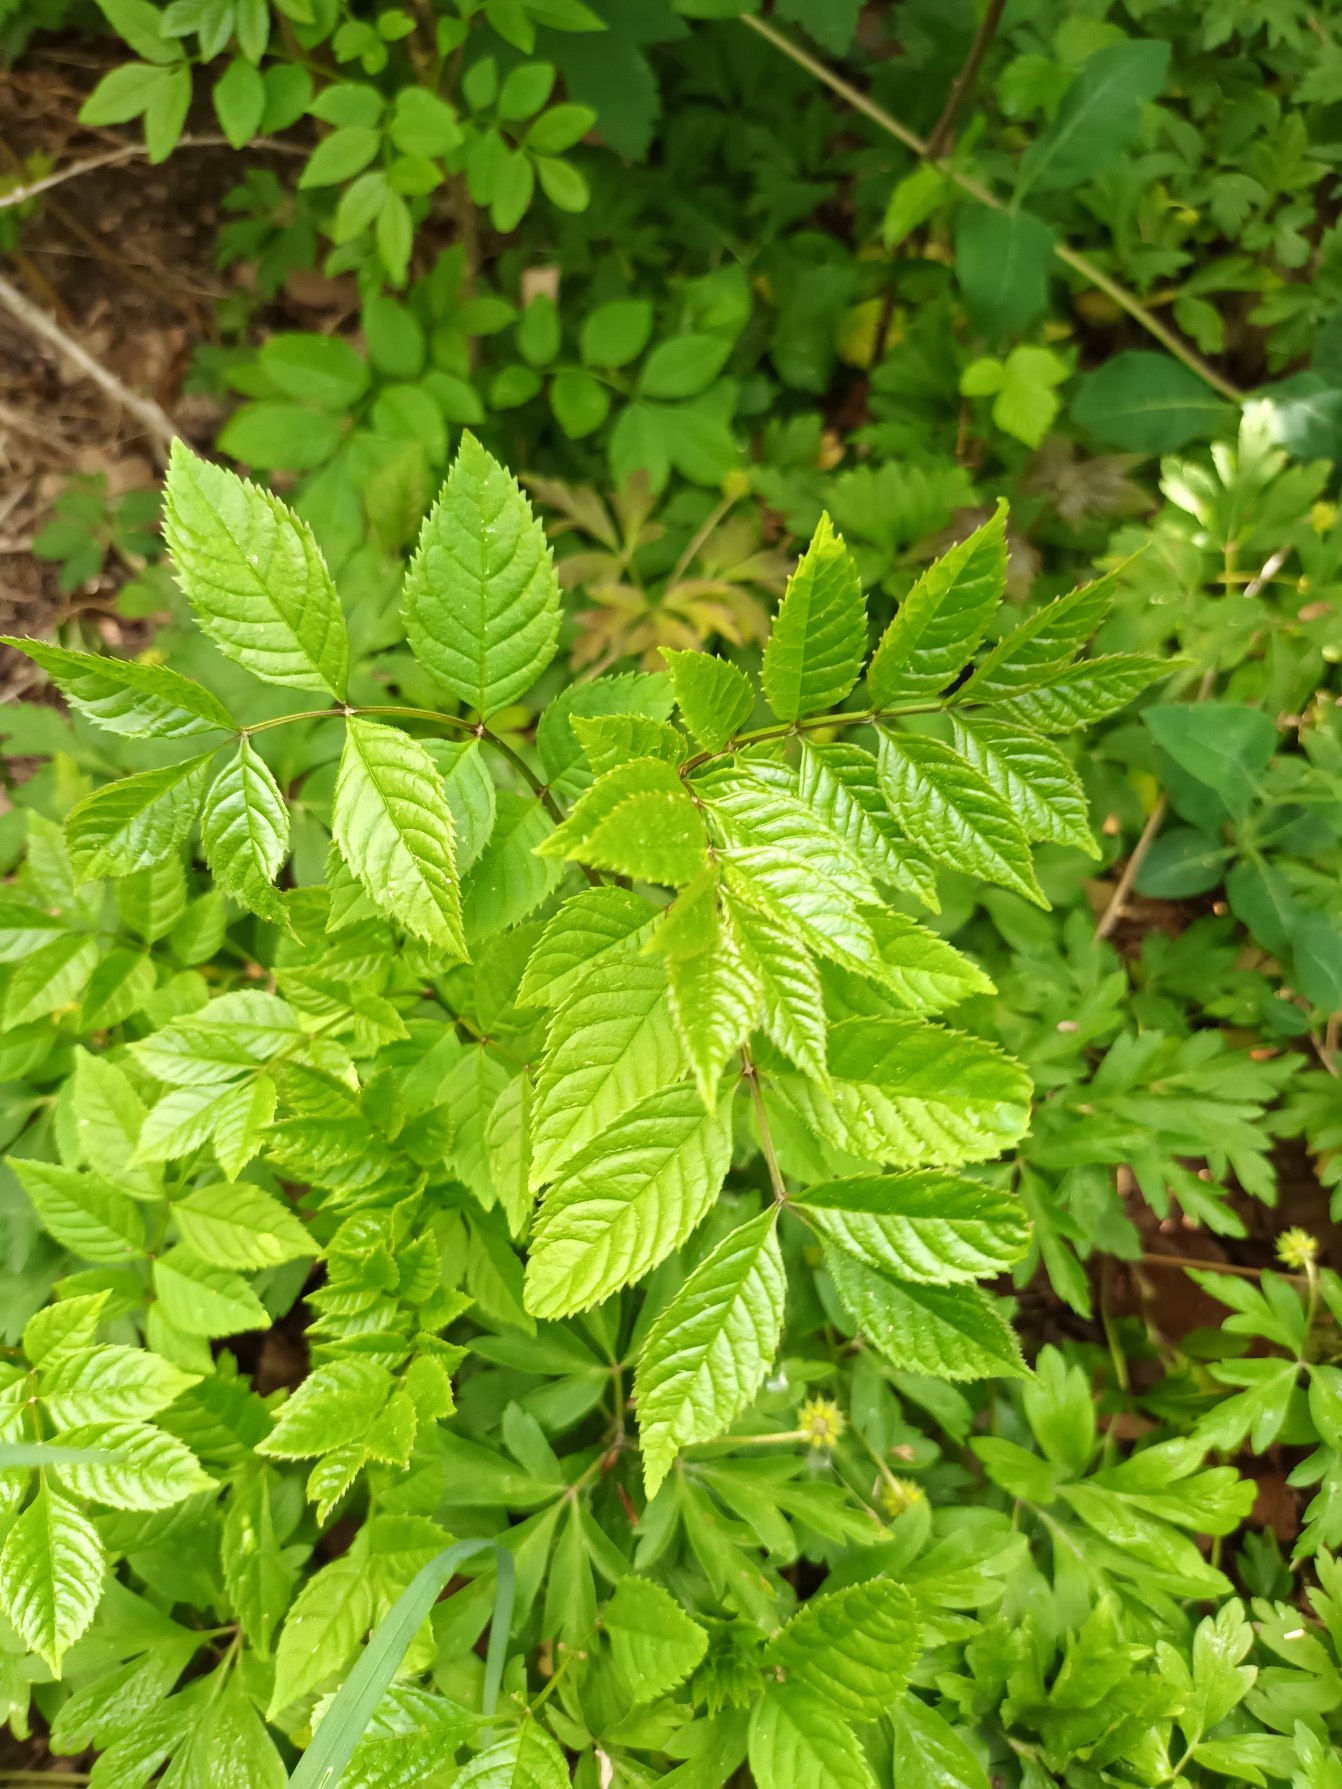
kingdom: Plantae
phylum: Tracheophyta
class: Magnoliopsida
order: Lamiales
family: Oleaceae
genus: Fraxinus
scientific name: Fraxinus excelsior
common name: Ask
